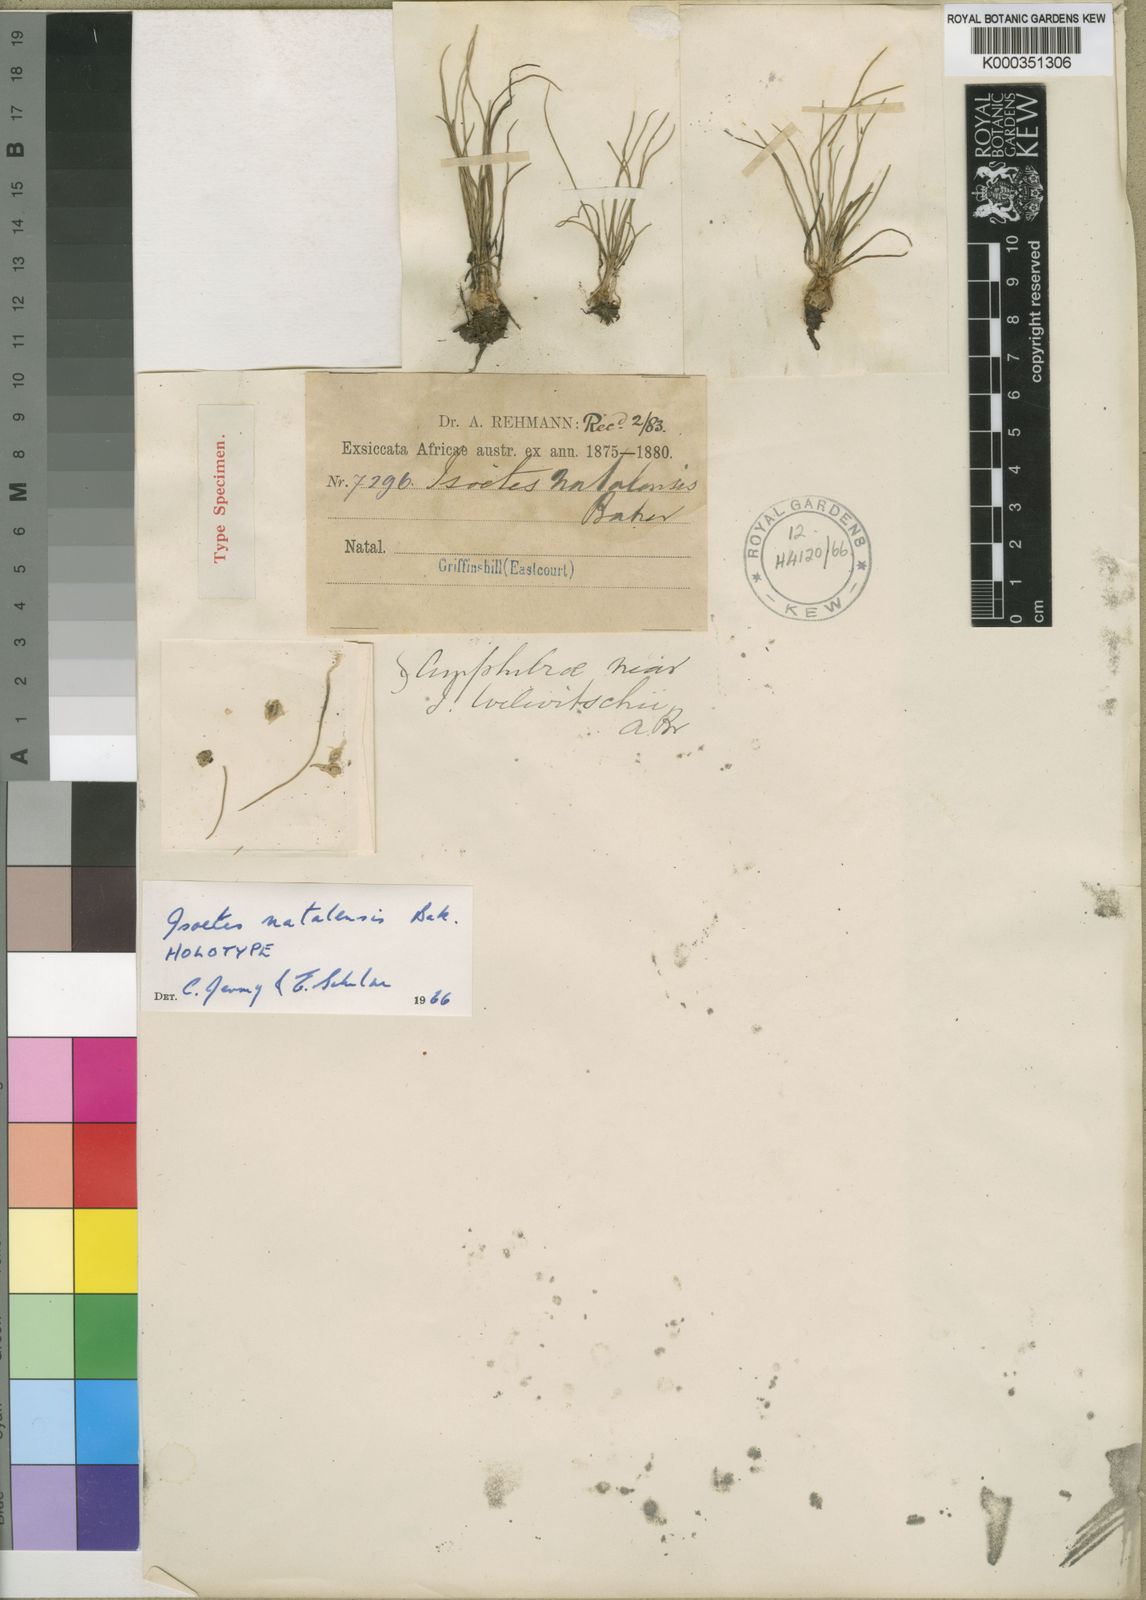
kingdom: Plantae
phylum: Tracheophyta
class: Lycopodiopsida
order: Isoetales
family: Isoetaceae
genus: Isoetes
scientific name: Isoetes
